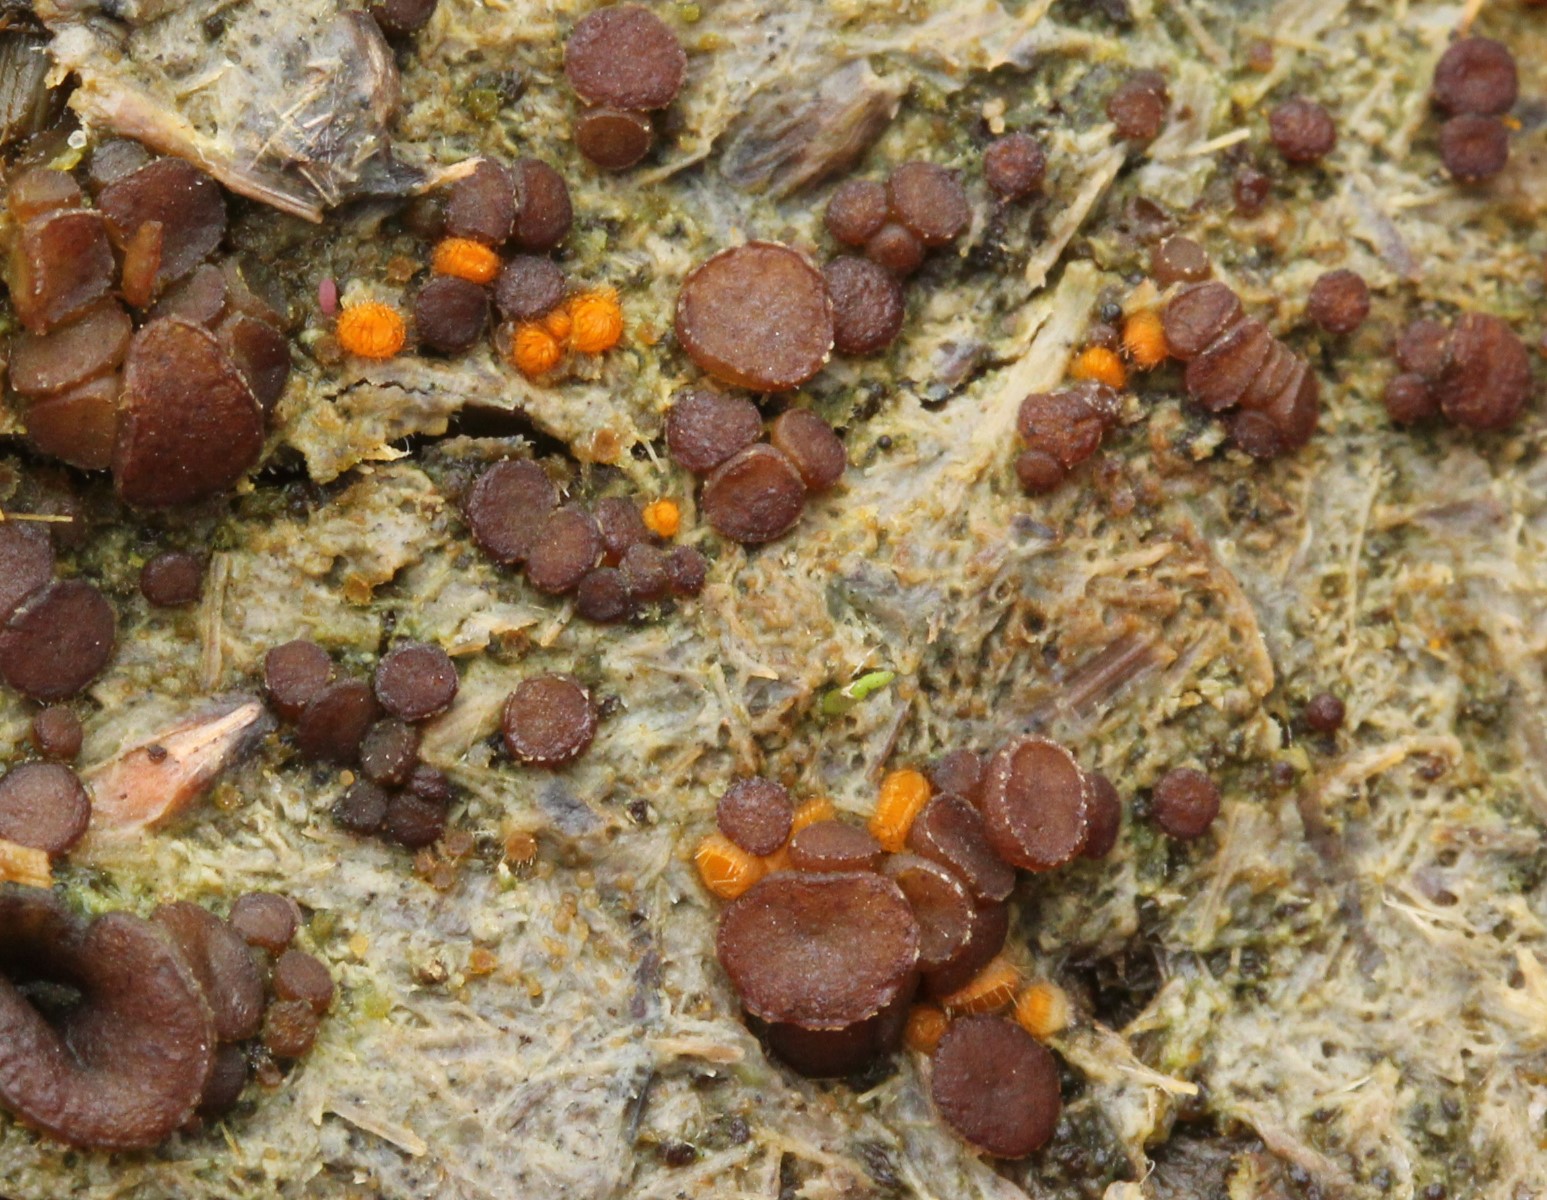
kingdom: Fungi
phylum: Ascomycota
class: Pezizomycetes
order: Pezizales
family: Pyronemataceae
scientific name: Pyronemataceae
